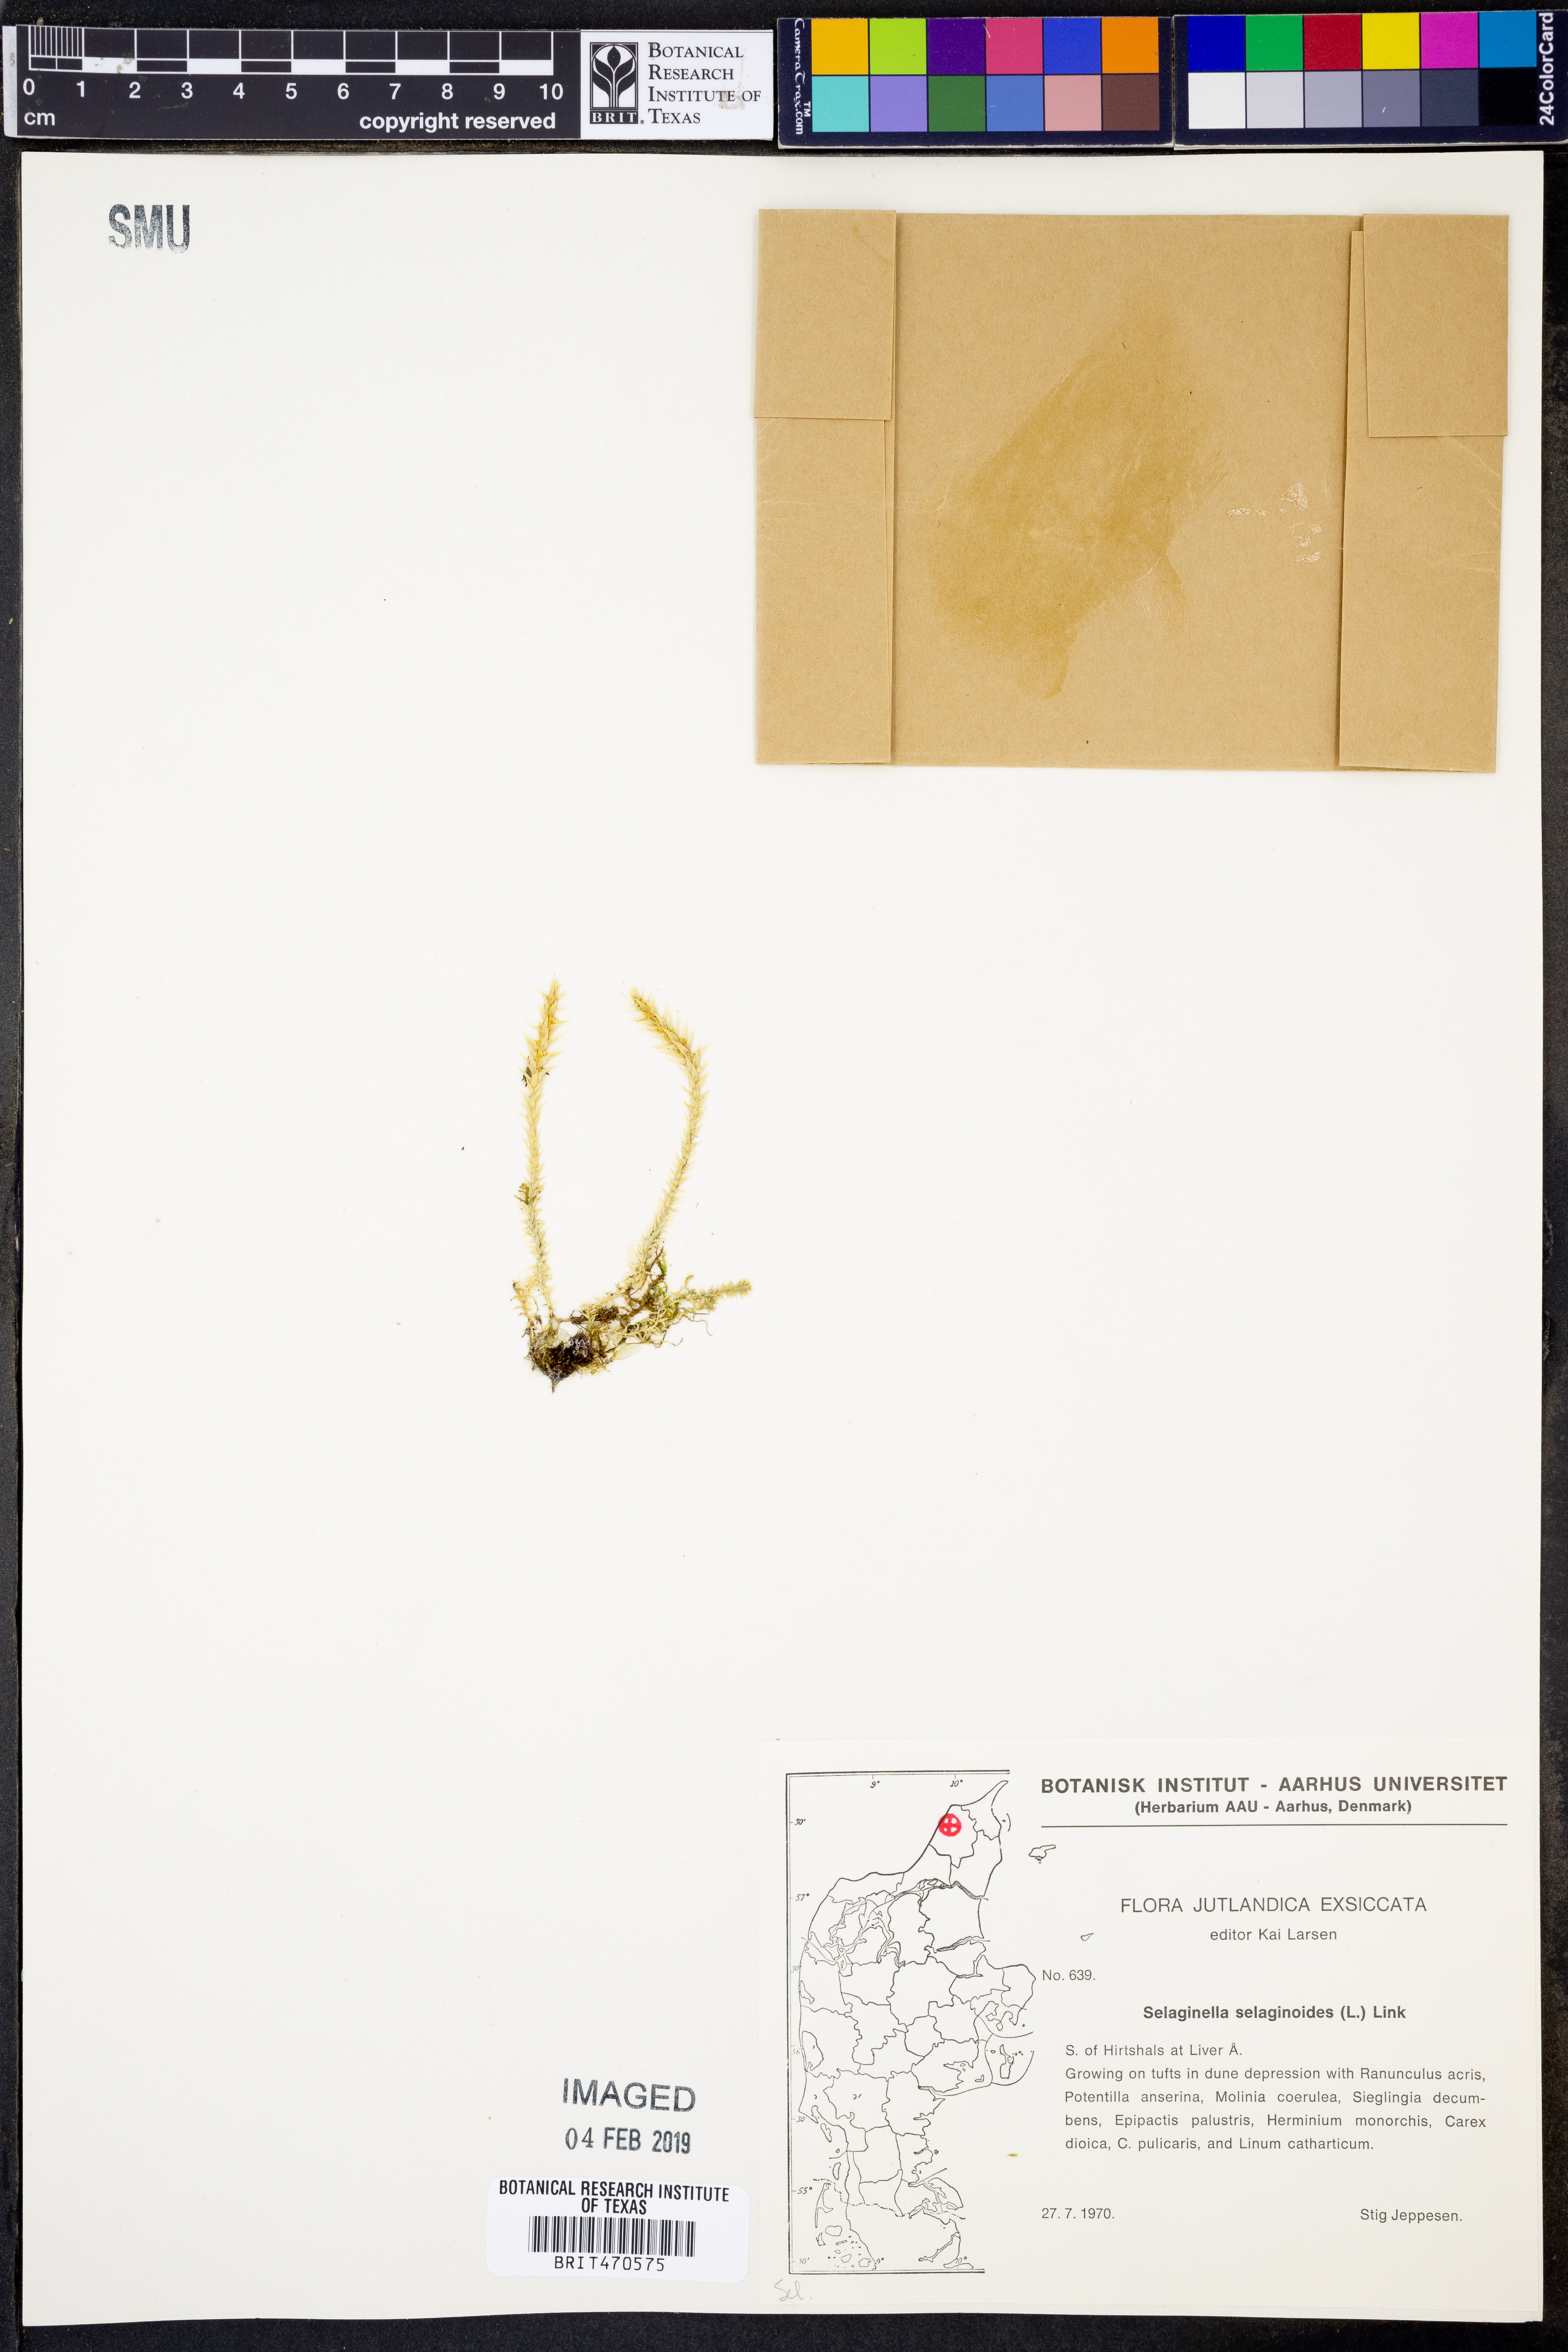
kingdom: Plantae
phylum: Tracheophyta
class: Lycopodiopsida
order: Selaginellales
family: Selaginellaceae
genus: Selaginella
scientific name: Selaginella selaginoides
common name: Prickly mountain-moss
